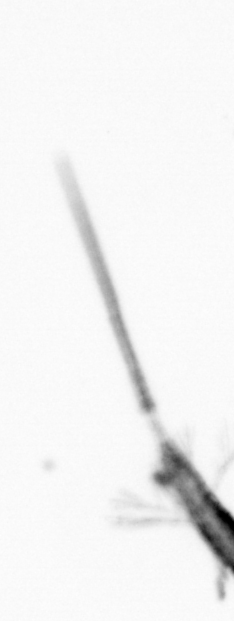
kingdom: Animalia
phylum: Arthropoda
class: Copepoda
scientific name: Copepoda
